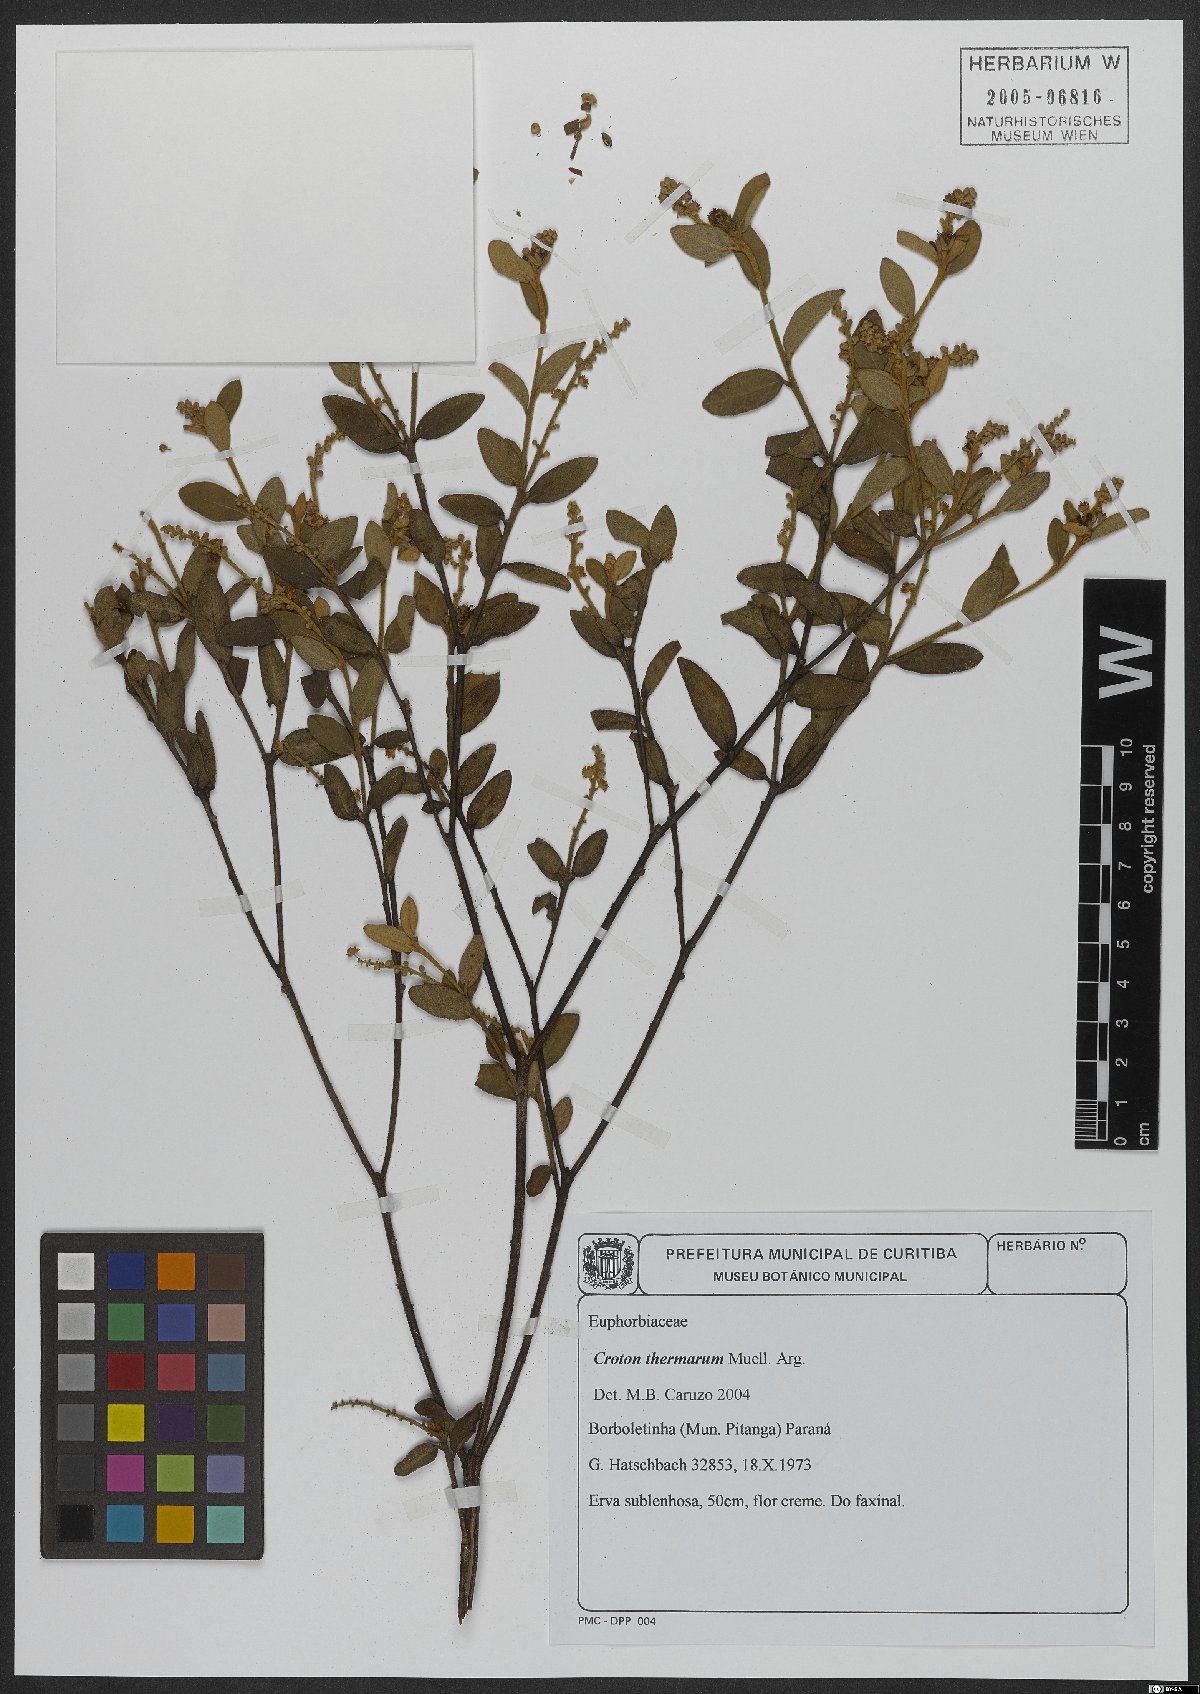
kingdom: Plantae
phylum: Tracheophyta
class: Magnoliopsida
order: Malpighiales
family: Euphorbiaceae
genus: Croton
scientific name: Croton lanatus
